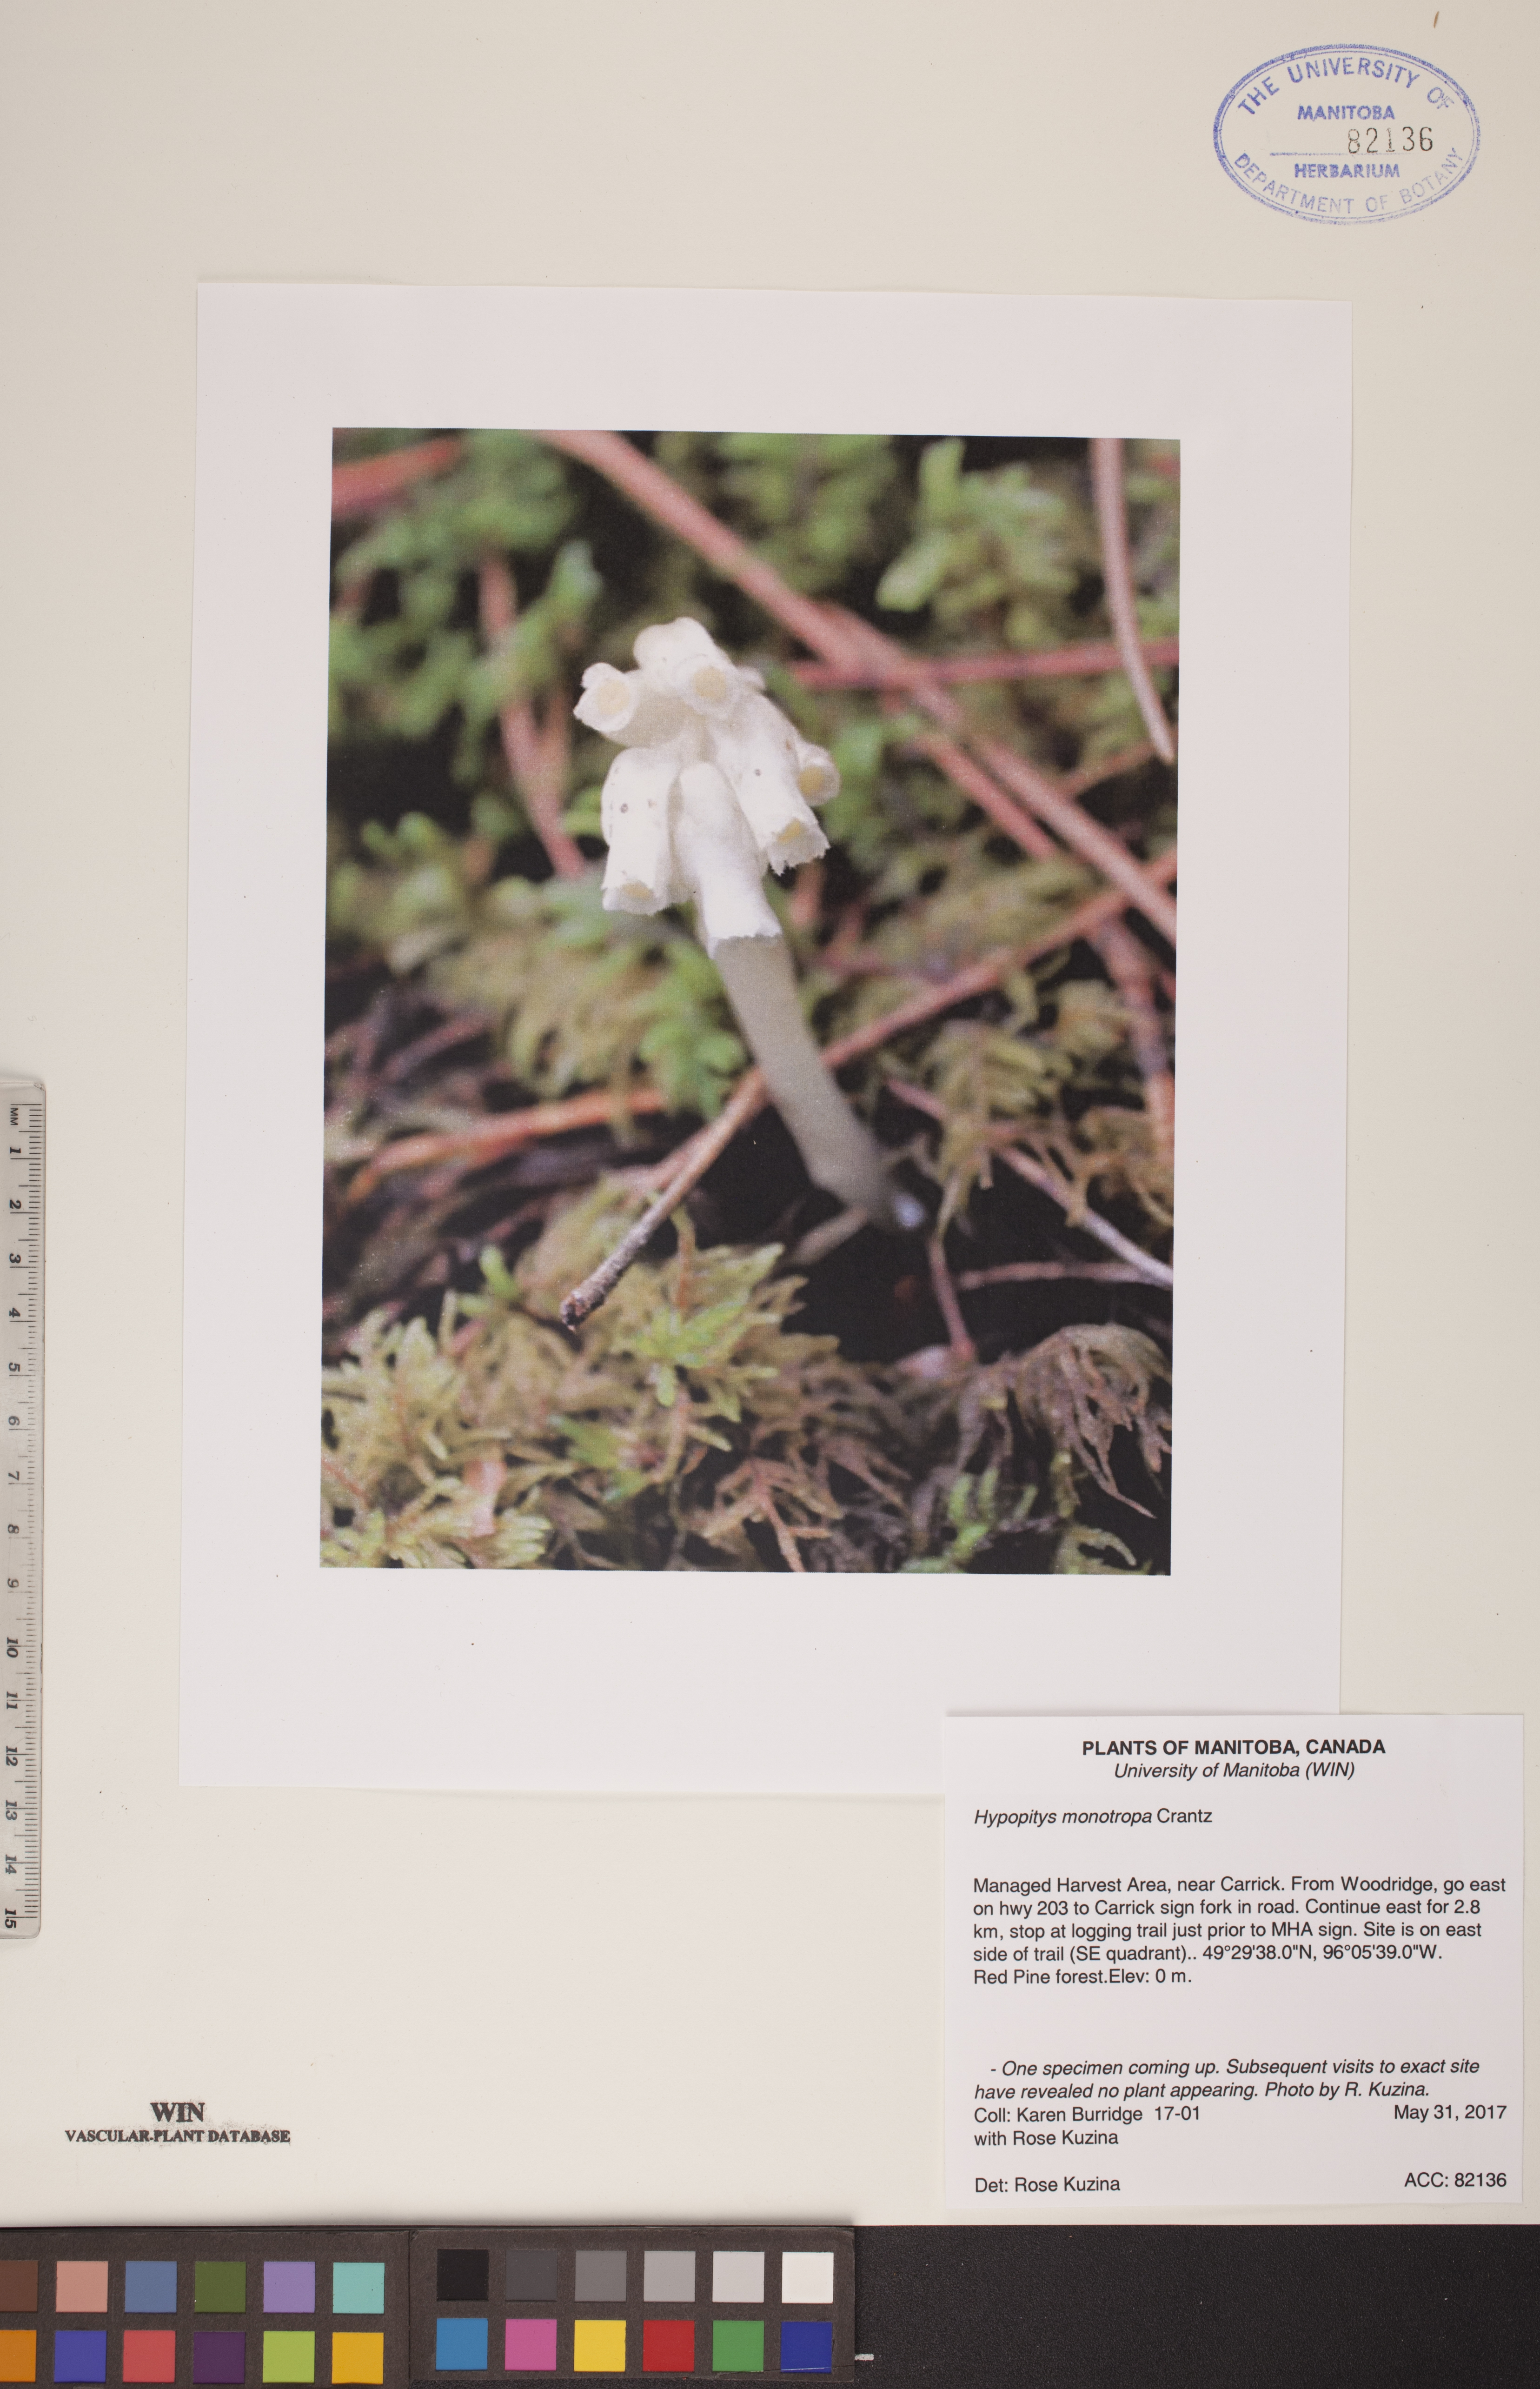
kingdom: Plantae
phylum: Tracheophyta
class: Magnoliopsida
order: Ericales
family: Ericaceae
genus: Hypopitys
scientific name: Hypopitys monotropa
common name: Yellow bird's-nest
